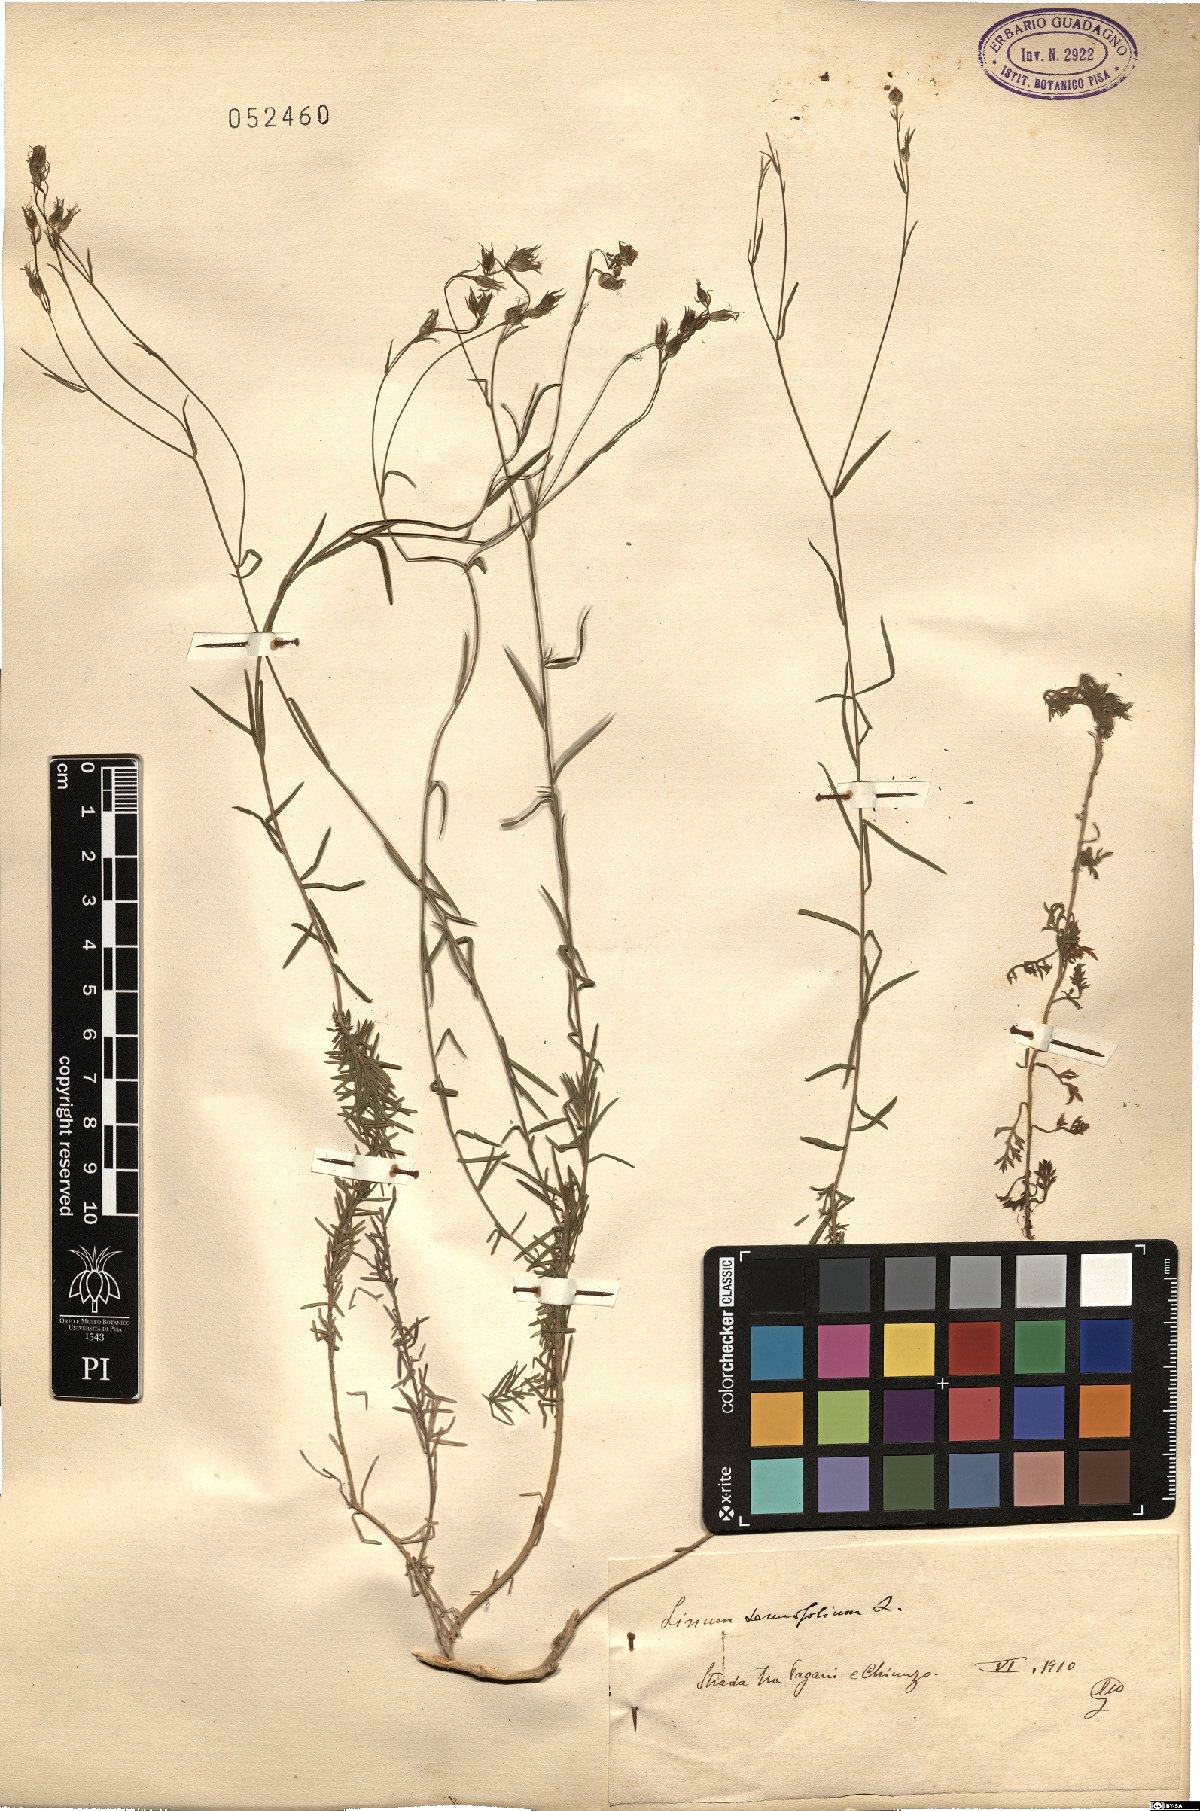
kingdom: Plantae
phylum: Tracheophyta
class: Magnoliopsida
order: Malpighiales
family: Linaceae
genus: Linum
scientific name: Linum tenuifolium
